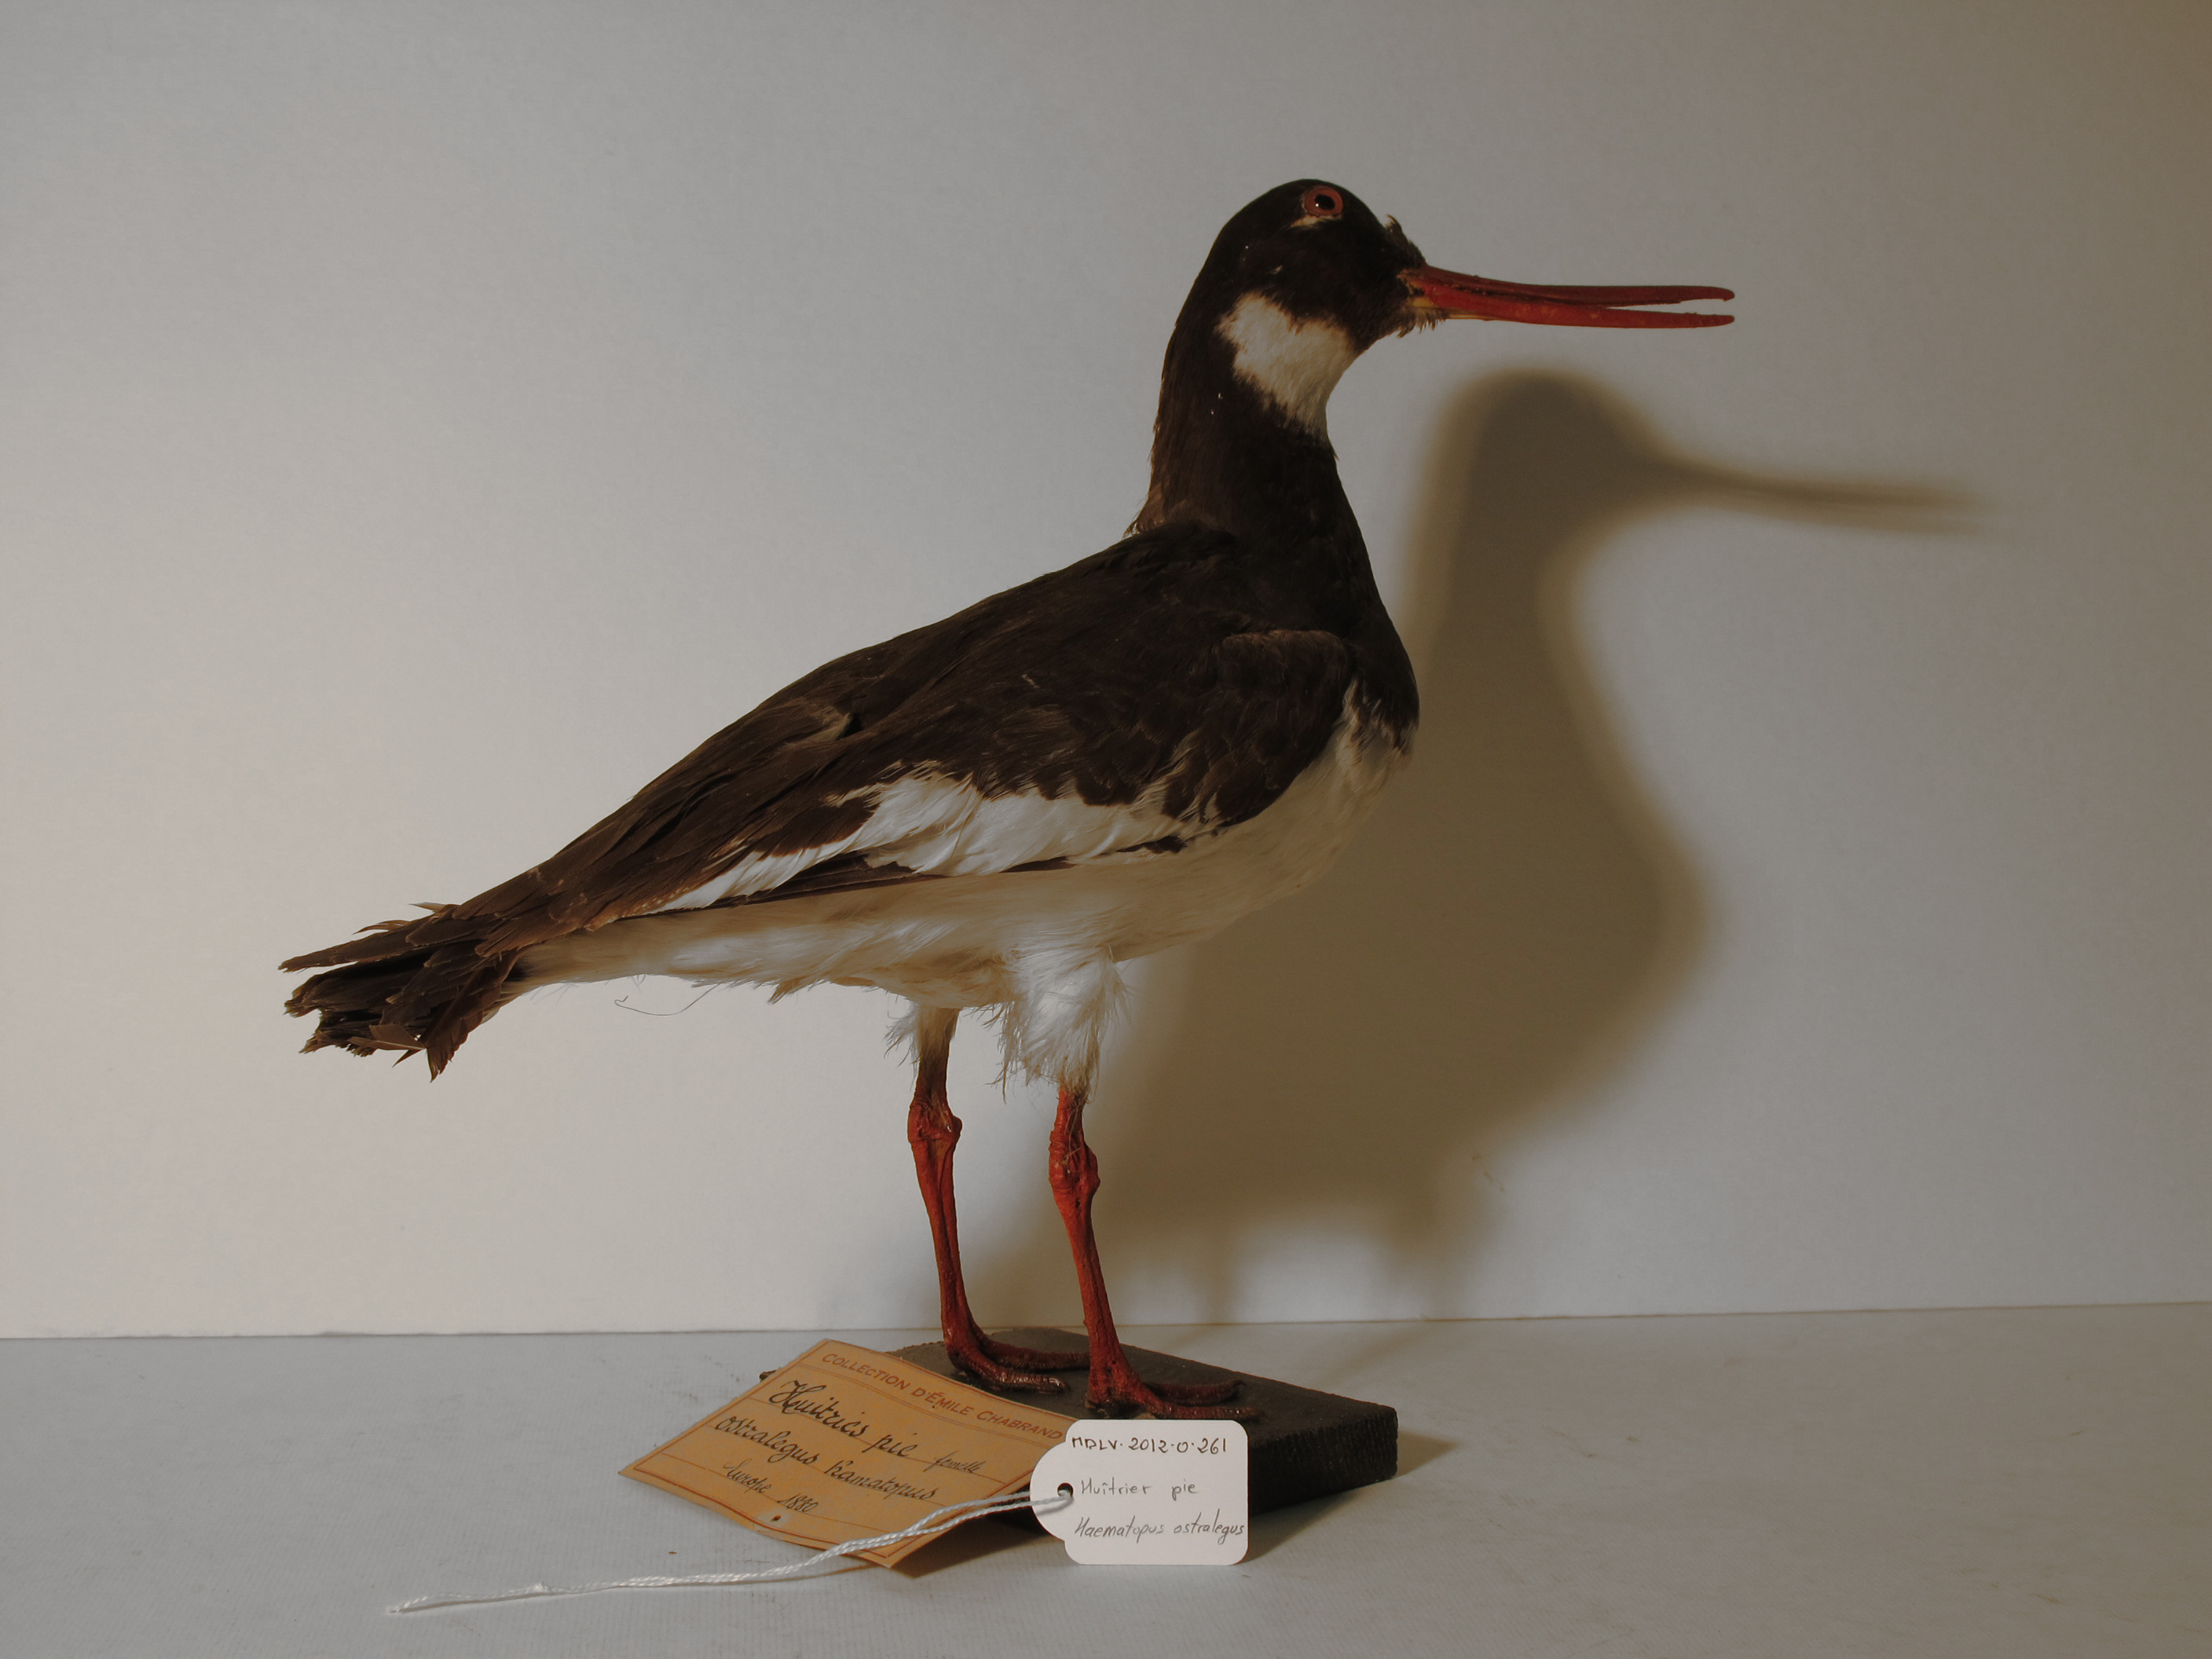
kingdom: Animalia
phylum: Chordata
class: Aves
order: Charadriiformes
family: Haematopodidae
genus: Haematopus
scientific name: Haematopus ostralegus
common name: Eurasian Oystercatcher
